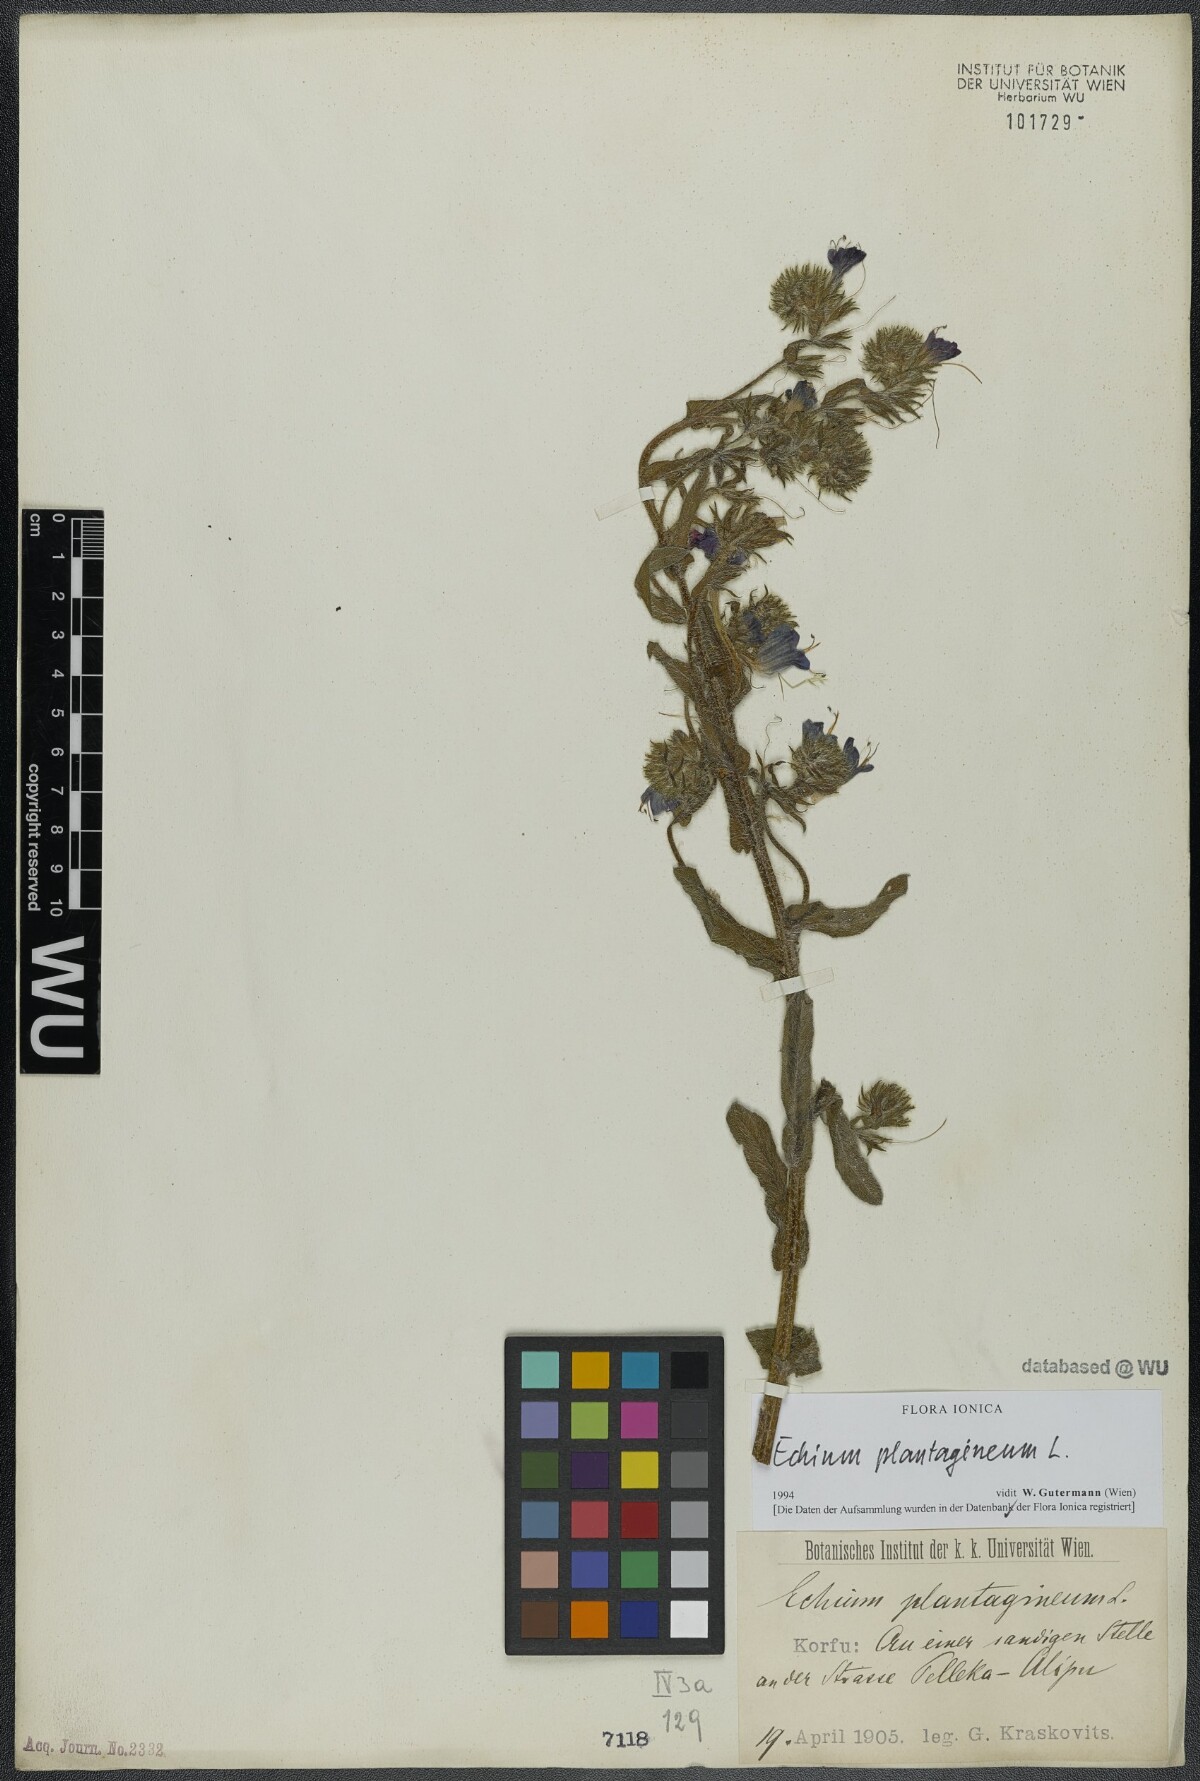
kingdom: Plantae
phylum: Tracheophyta
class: Magnoliopsida
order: Boraginales
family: Boraginaceae
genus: Echium
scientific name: Echium plantagineum
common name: Purple viper's-bugloss
